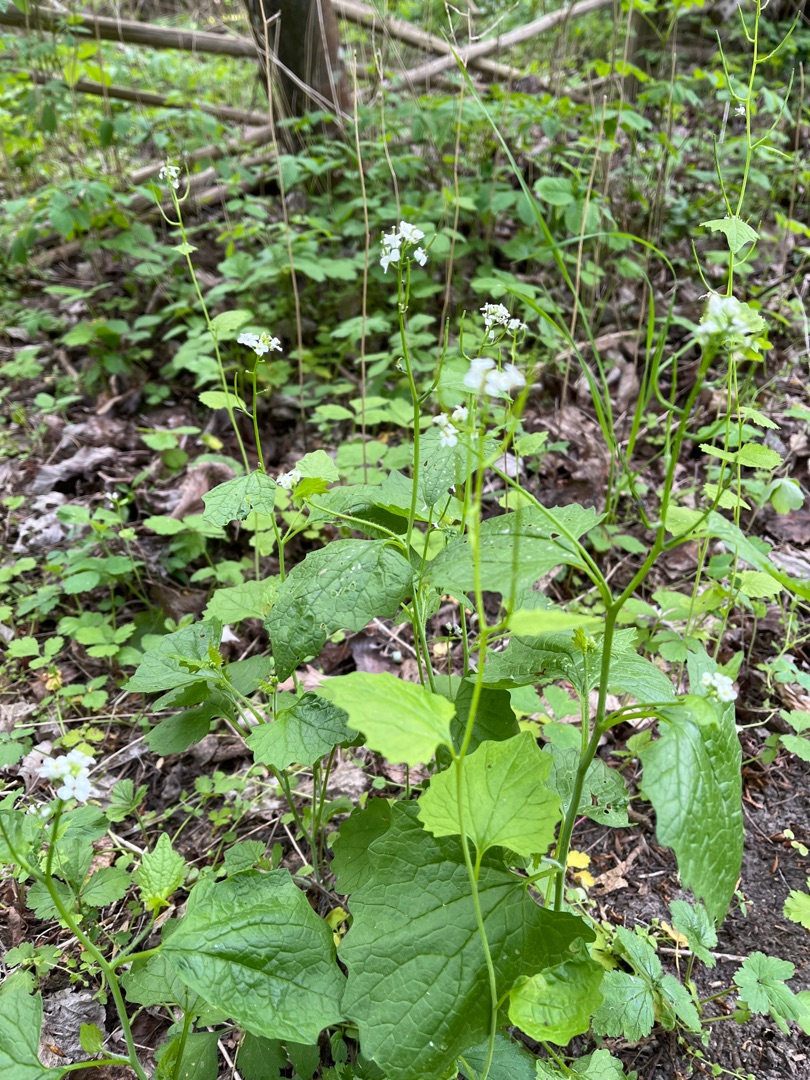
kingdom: Plantae
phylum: Tracheophyta
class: Magnoliopsida
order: Brassicales
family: Brassicaceae
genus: Alliaria
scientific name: Alliaria petiolata
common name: Løgkarse
